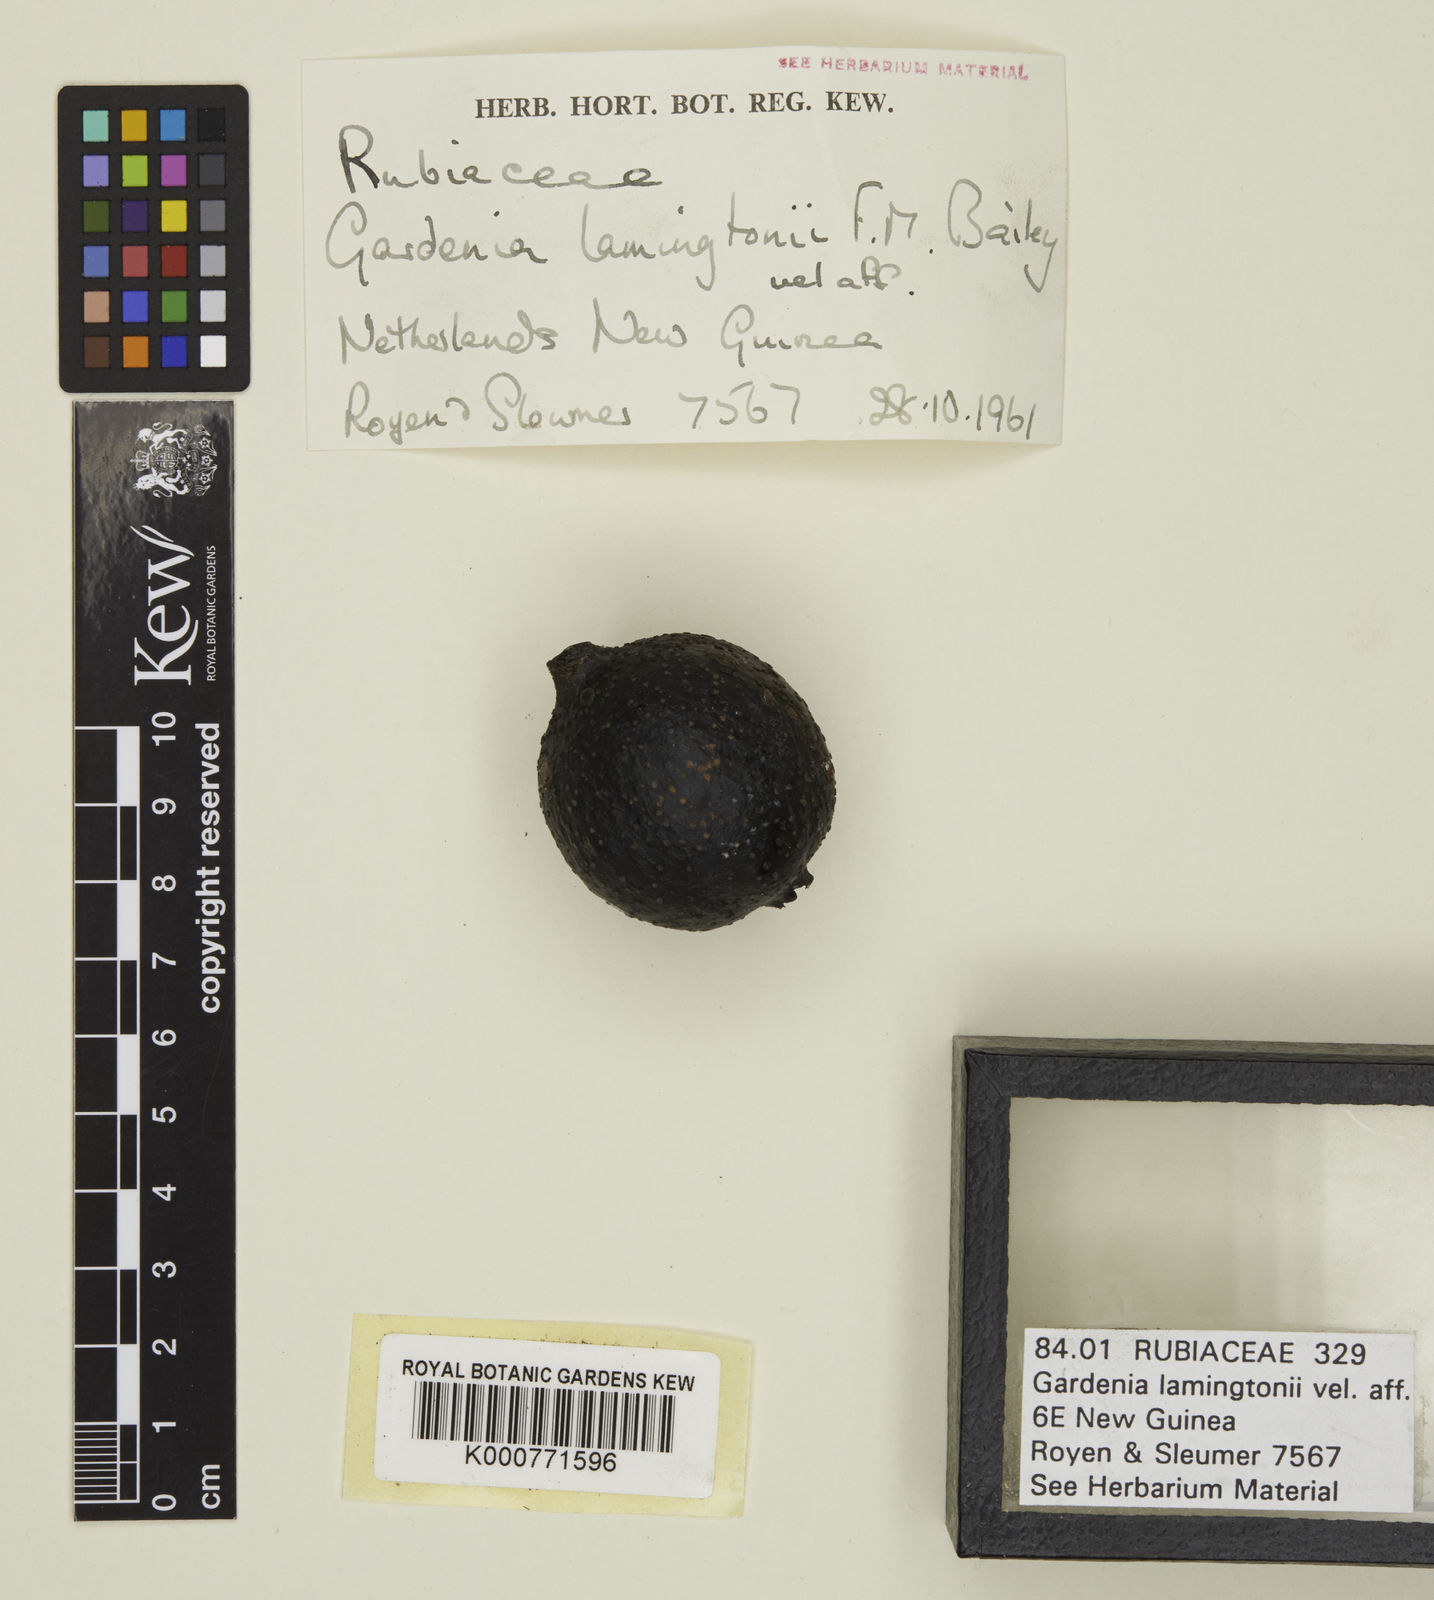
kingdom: Plantae
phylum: Tracheophyta
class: Magnoliopsida
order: Gentianales
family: Rubiaceae
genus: Gardenia
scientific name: Gardenia lamingtonii
